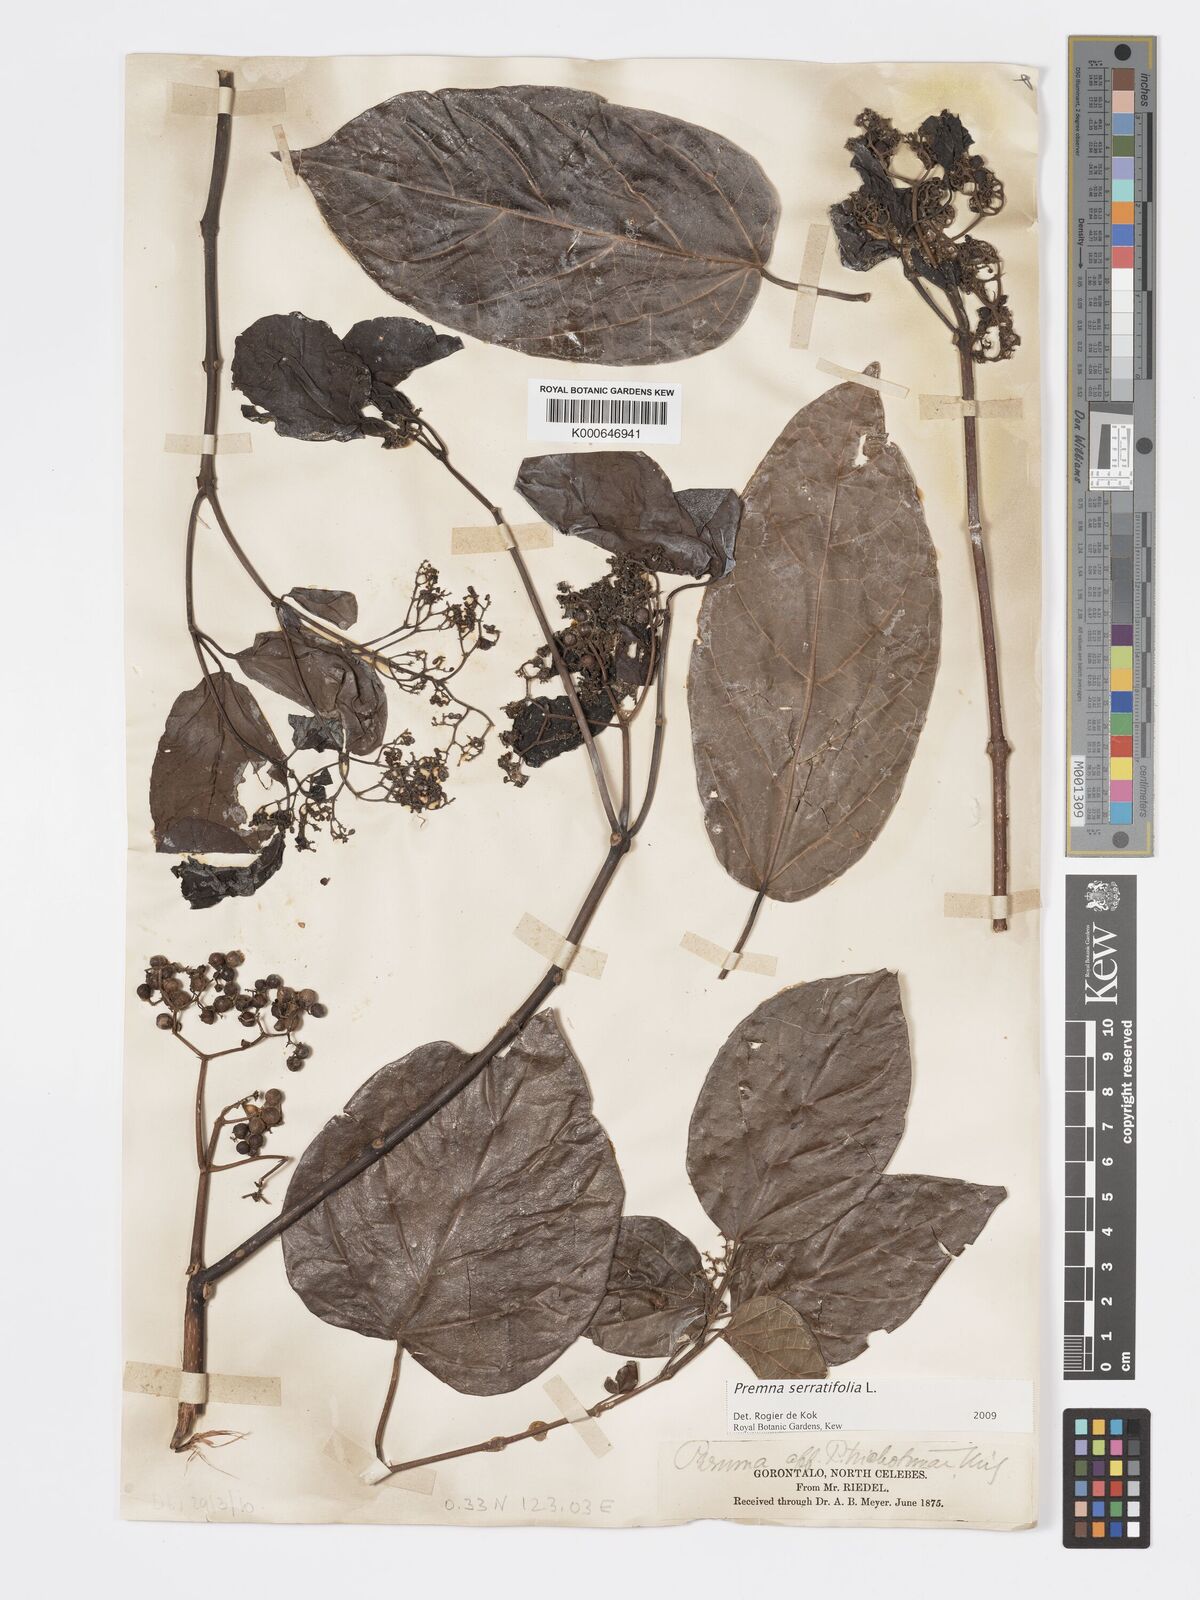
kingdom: Plantae
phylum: Tracheophyta
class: Magnoliopsida
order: Lamiales
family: Lamiaceae
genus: Premna
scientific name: Premna serratifolia
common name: Bastard guelder
